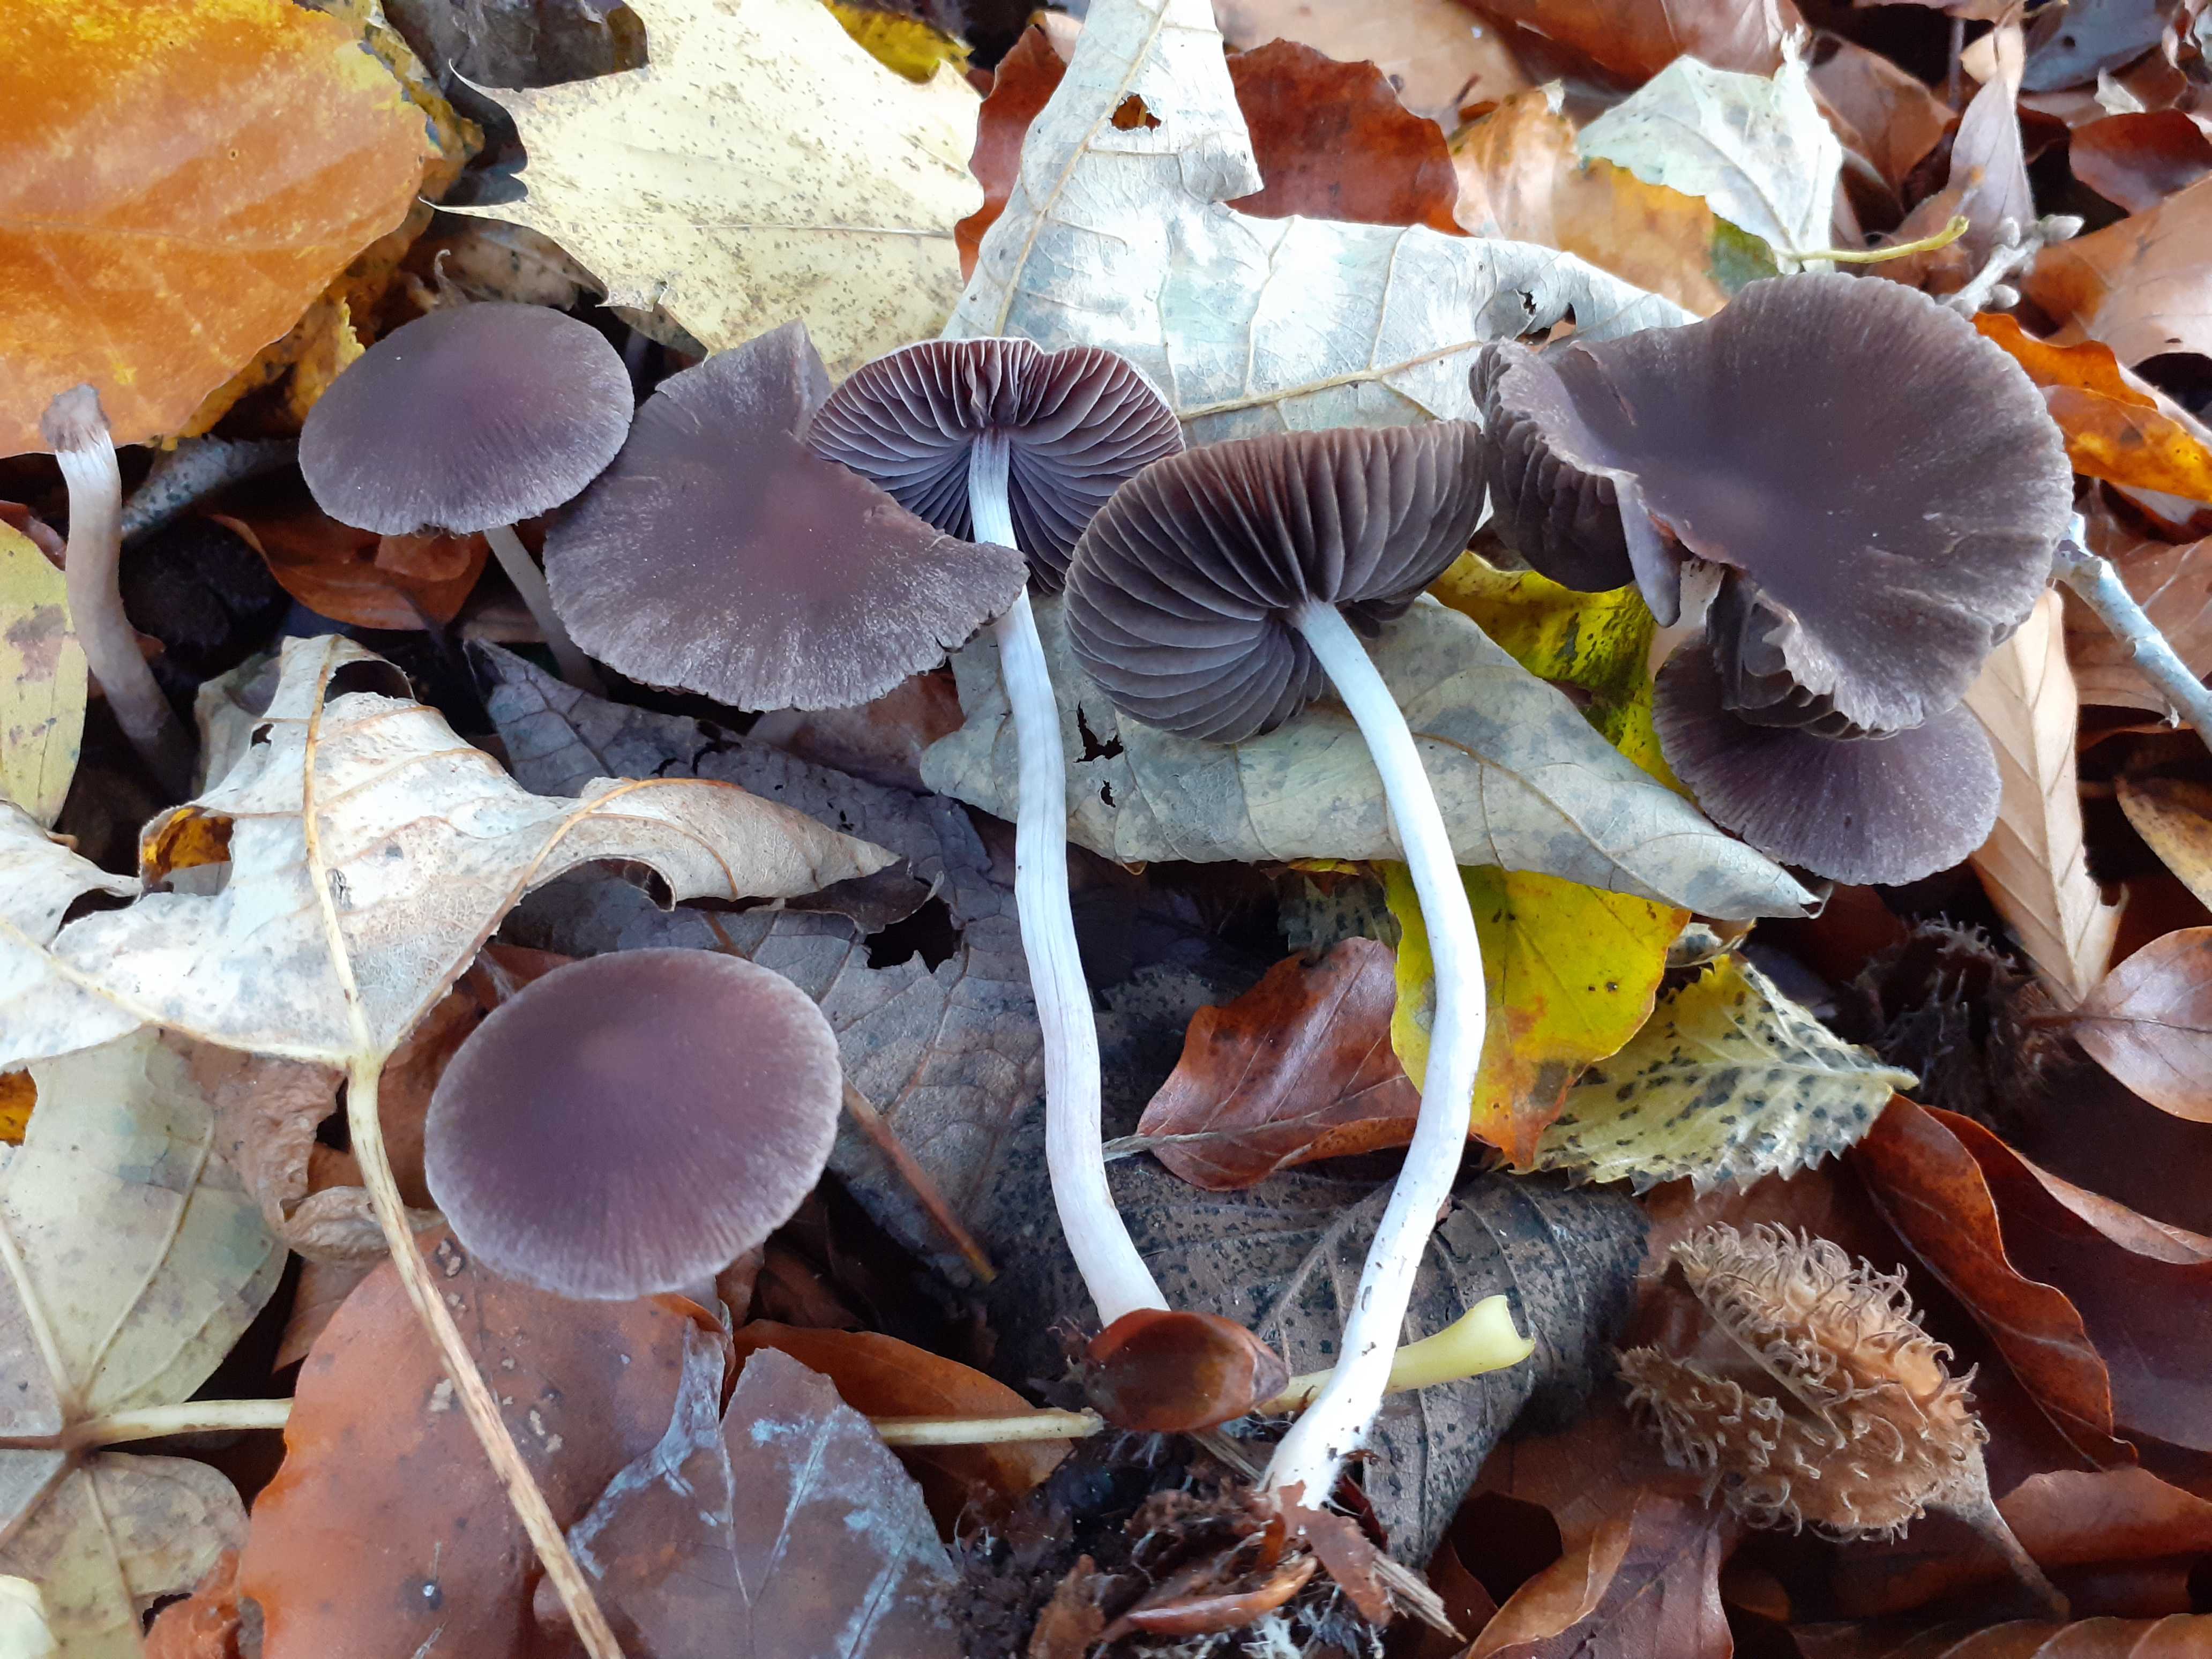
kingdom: Fungi
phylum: Basidiomycota
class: Agaricomycetes
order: Agaricales
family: Psathyrellaceae
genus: Psathyrella
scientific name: Psathyrella bipellis
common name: vinrød mørkhat
